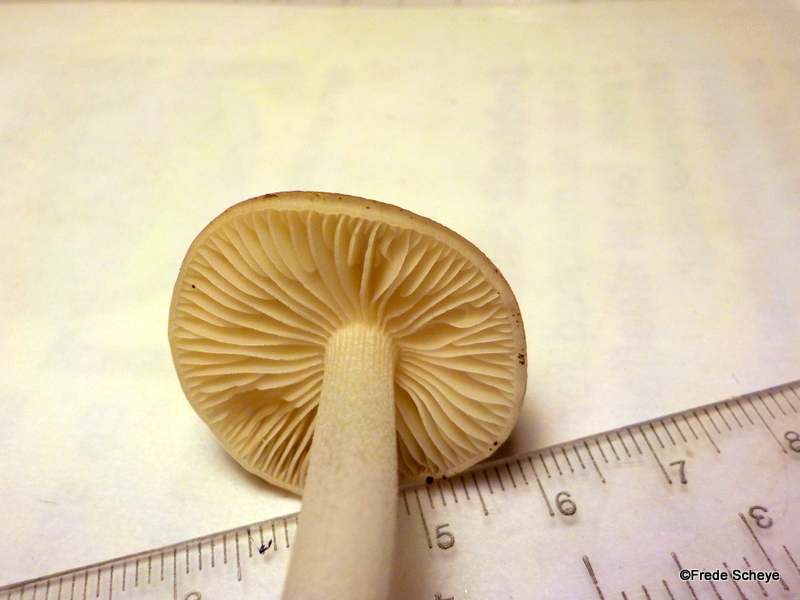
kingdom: Fungi
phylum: Basidiomycota
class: Agaricomycetes
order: Agaricales
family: Physalacriaceae
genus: Hymenopellis
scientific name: Hymenopellis radicata
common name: almindelig pælerodshat
